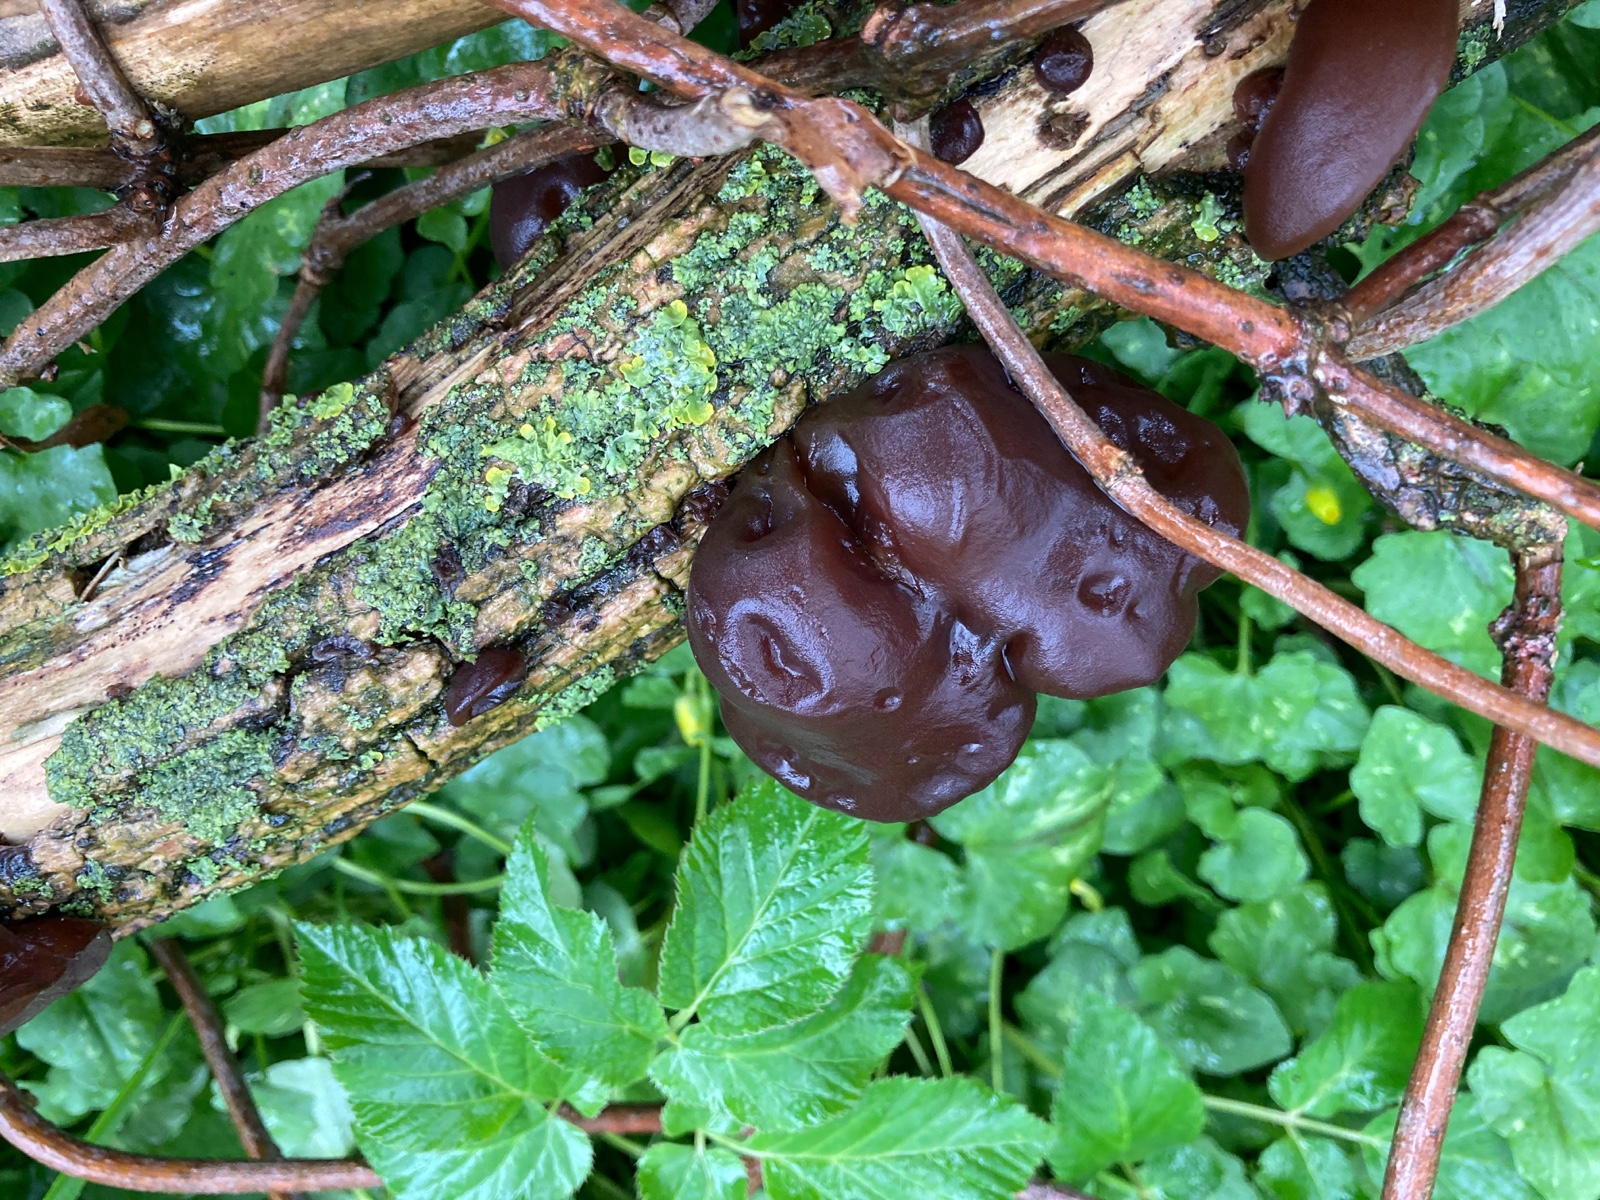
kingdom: Fungi
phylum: Basidiomycota
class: Agaricomycetes
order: Auriculariales
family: Auriculariaceae
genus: Auricularia
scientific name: Auricularia auricula-judae
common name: almindelig judasøre
